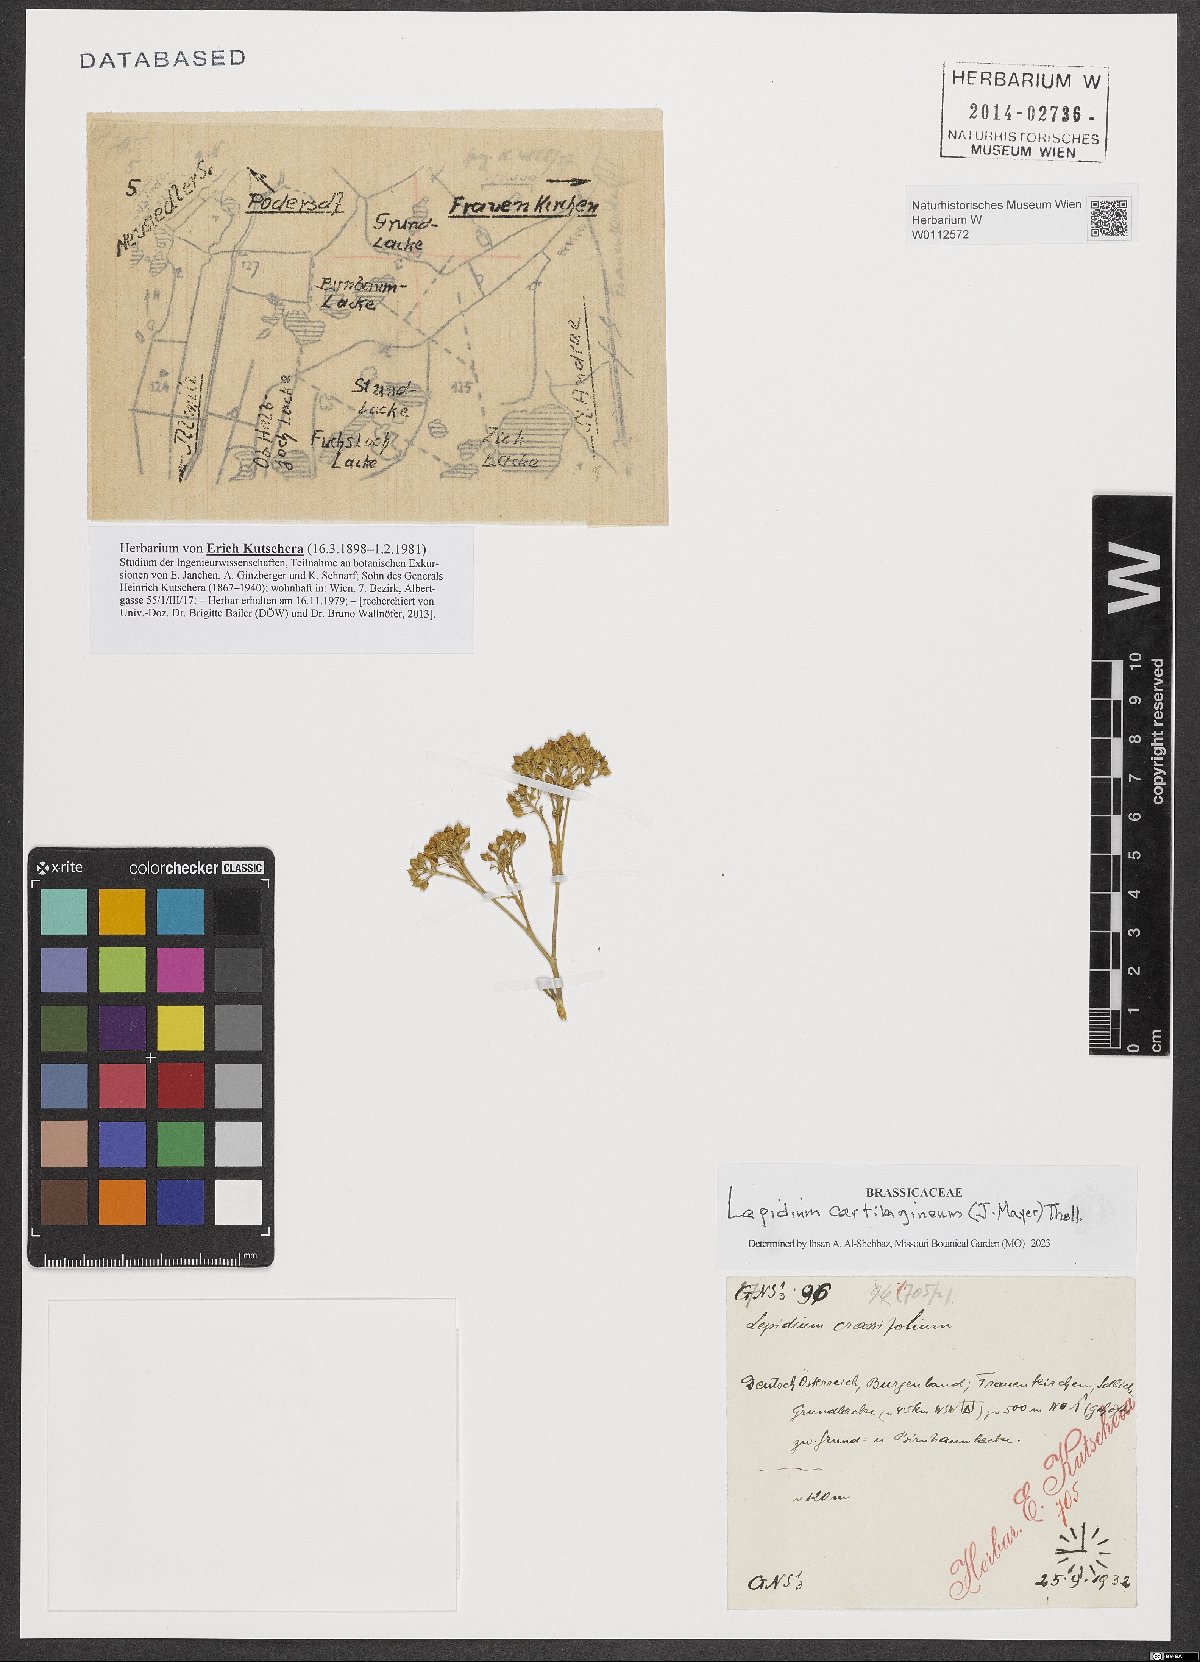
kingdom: Plantae
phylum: Tracheophyta
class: Magnoliopsida
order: Brassicales
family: Brassicaceae
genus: Lepidium
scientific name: Lepidium cartilagineum
